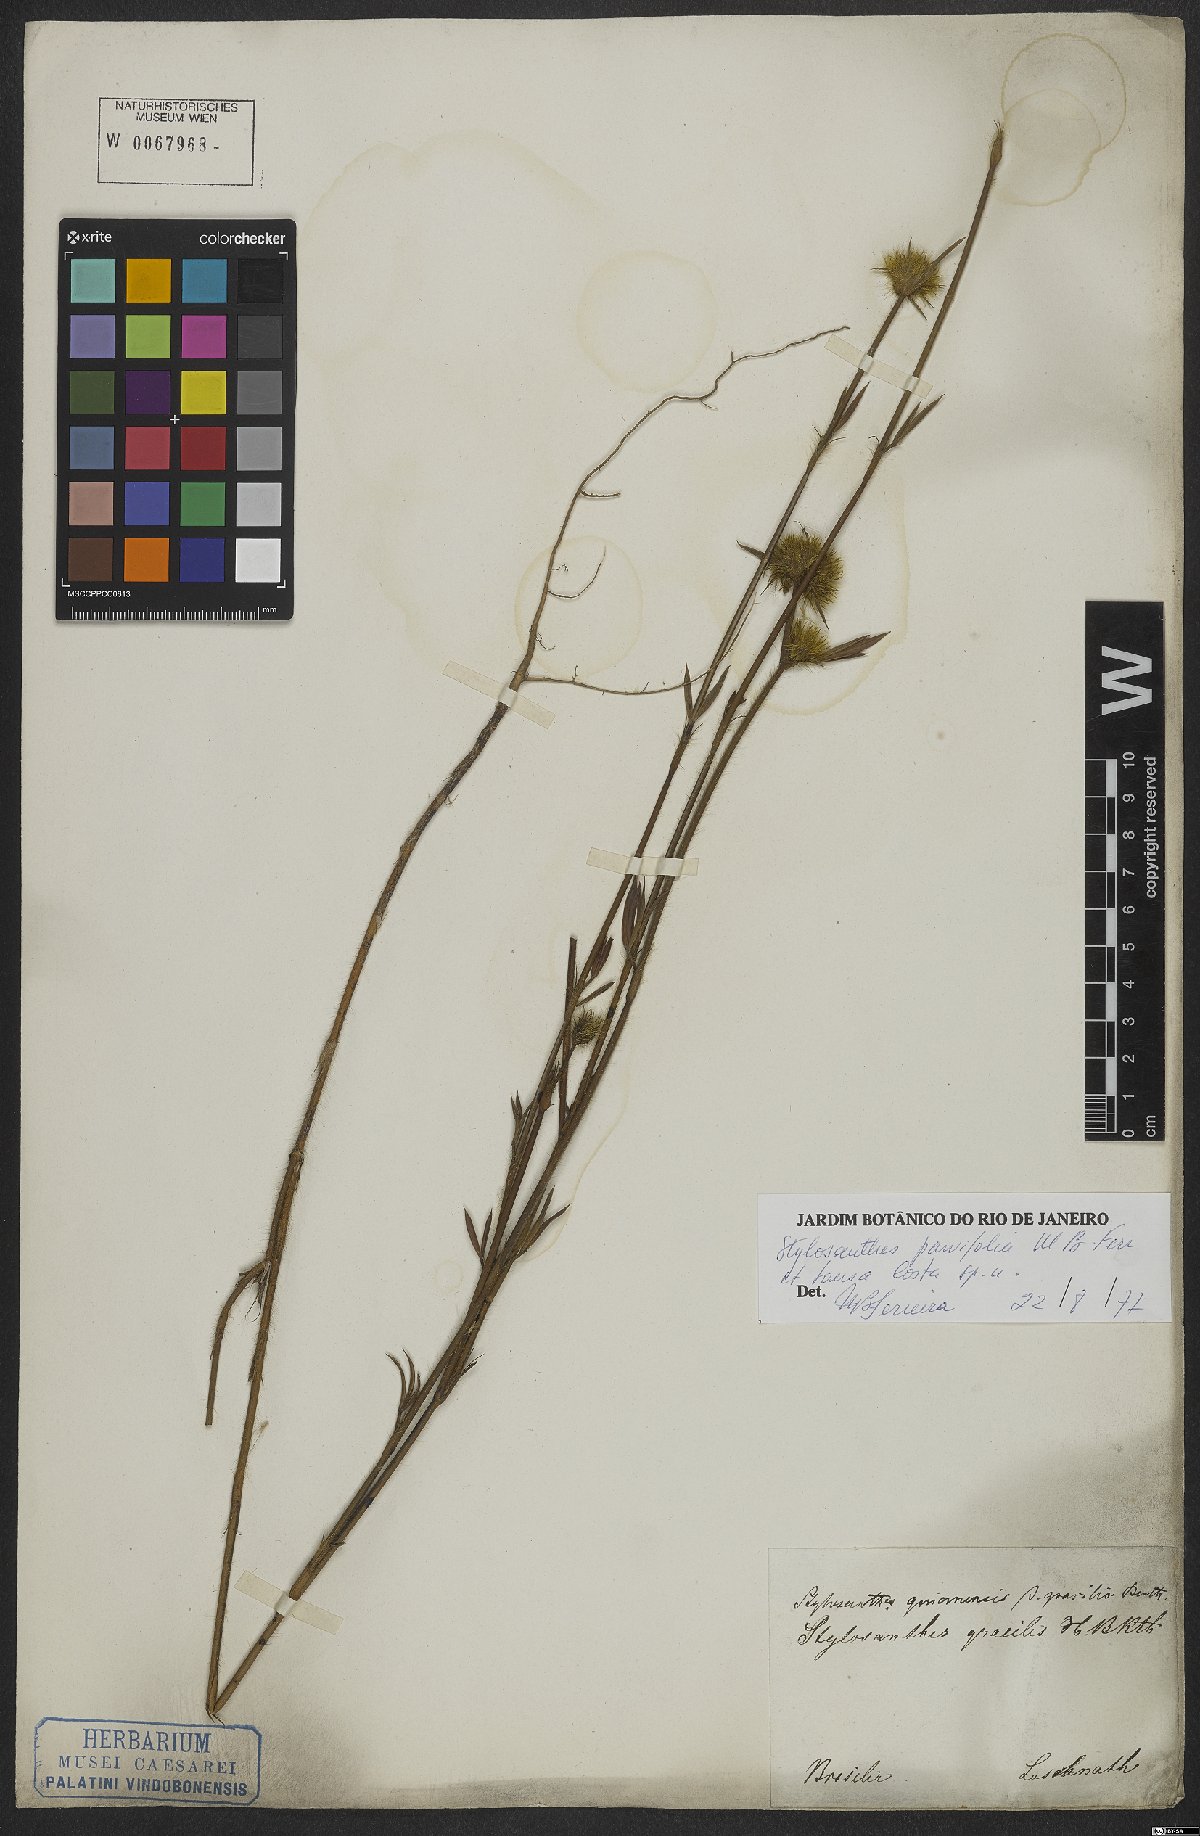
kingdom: Plantae
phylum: Tracheophyta
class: Magnoliopsida
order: Fabales
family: Fabaceae
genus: Stylosanthes
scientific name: Stylosanthes
